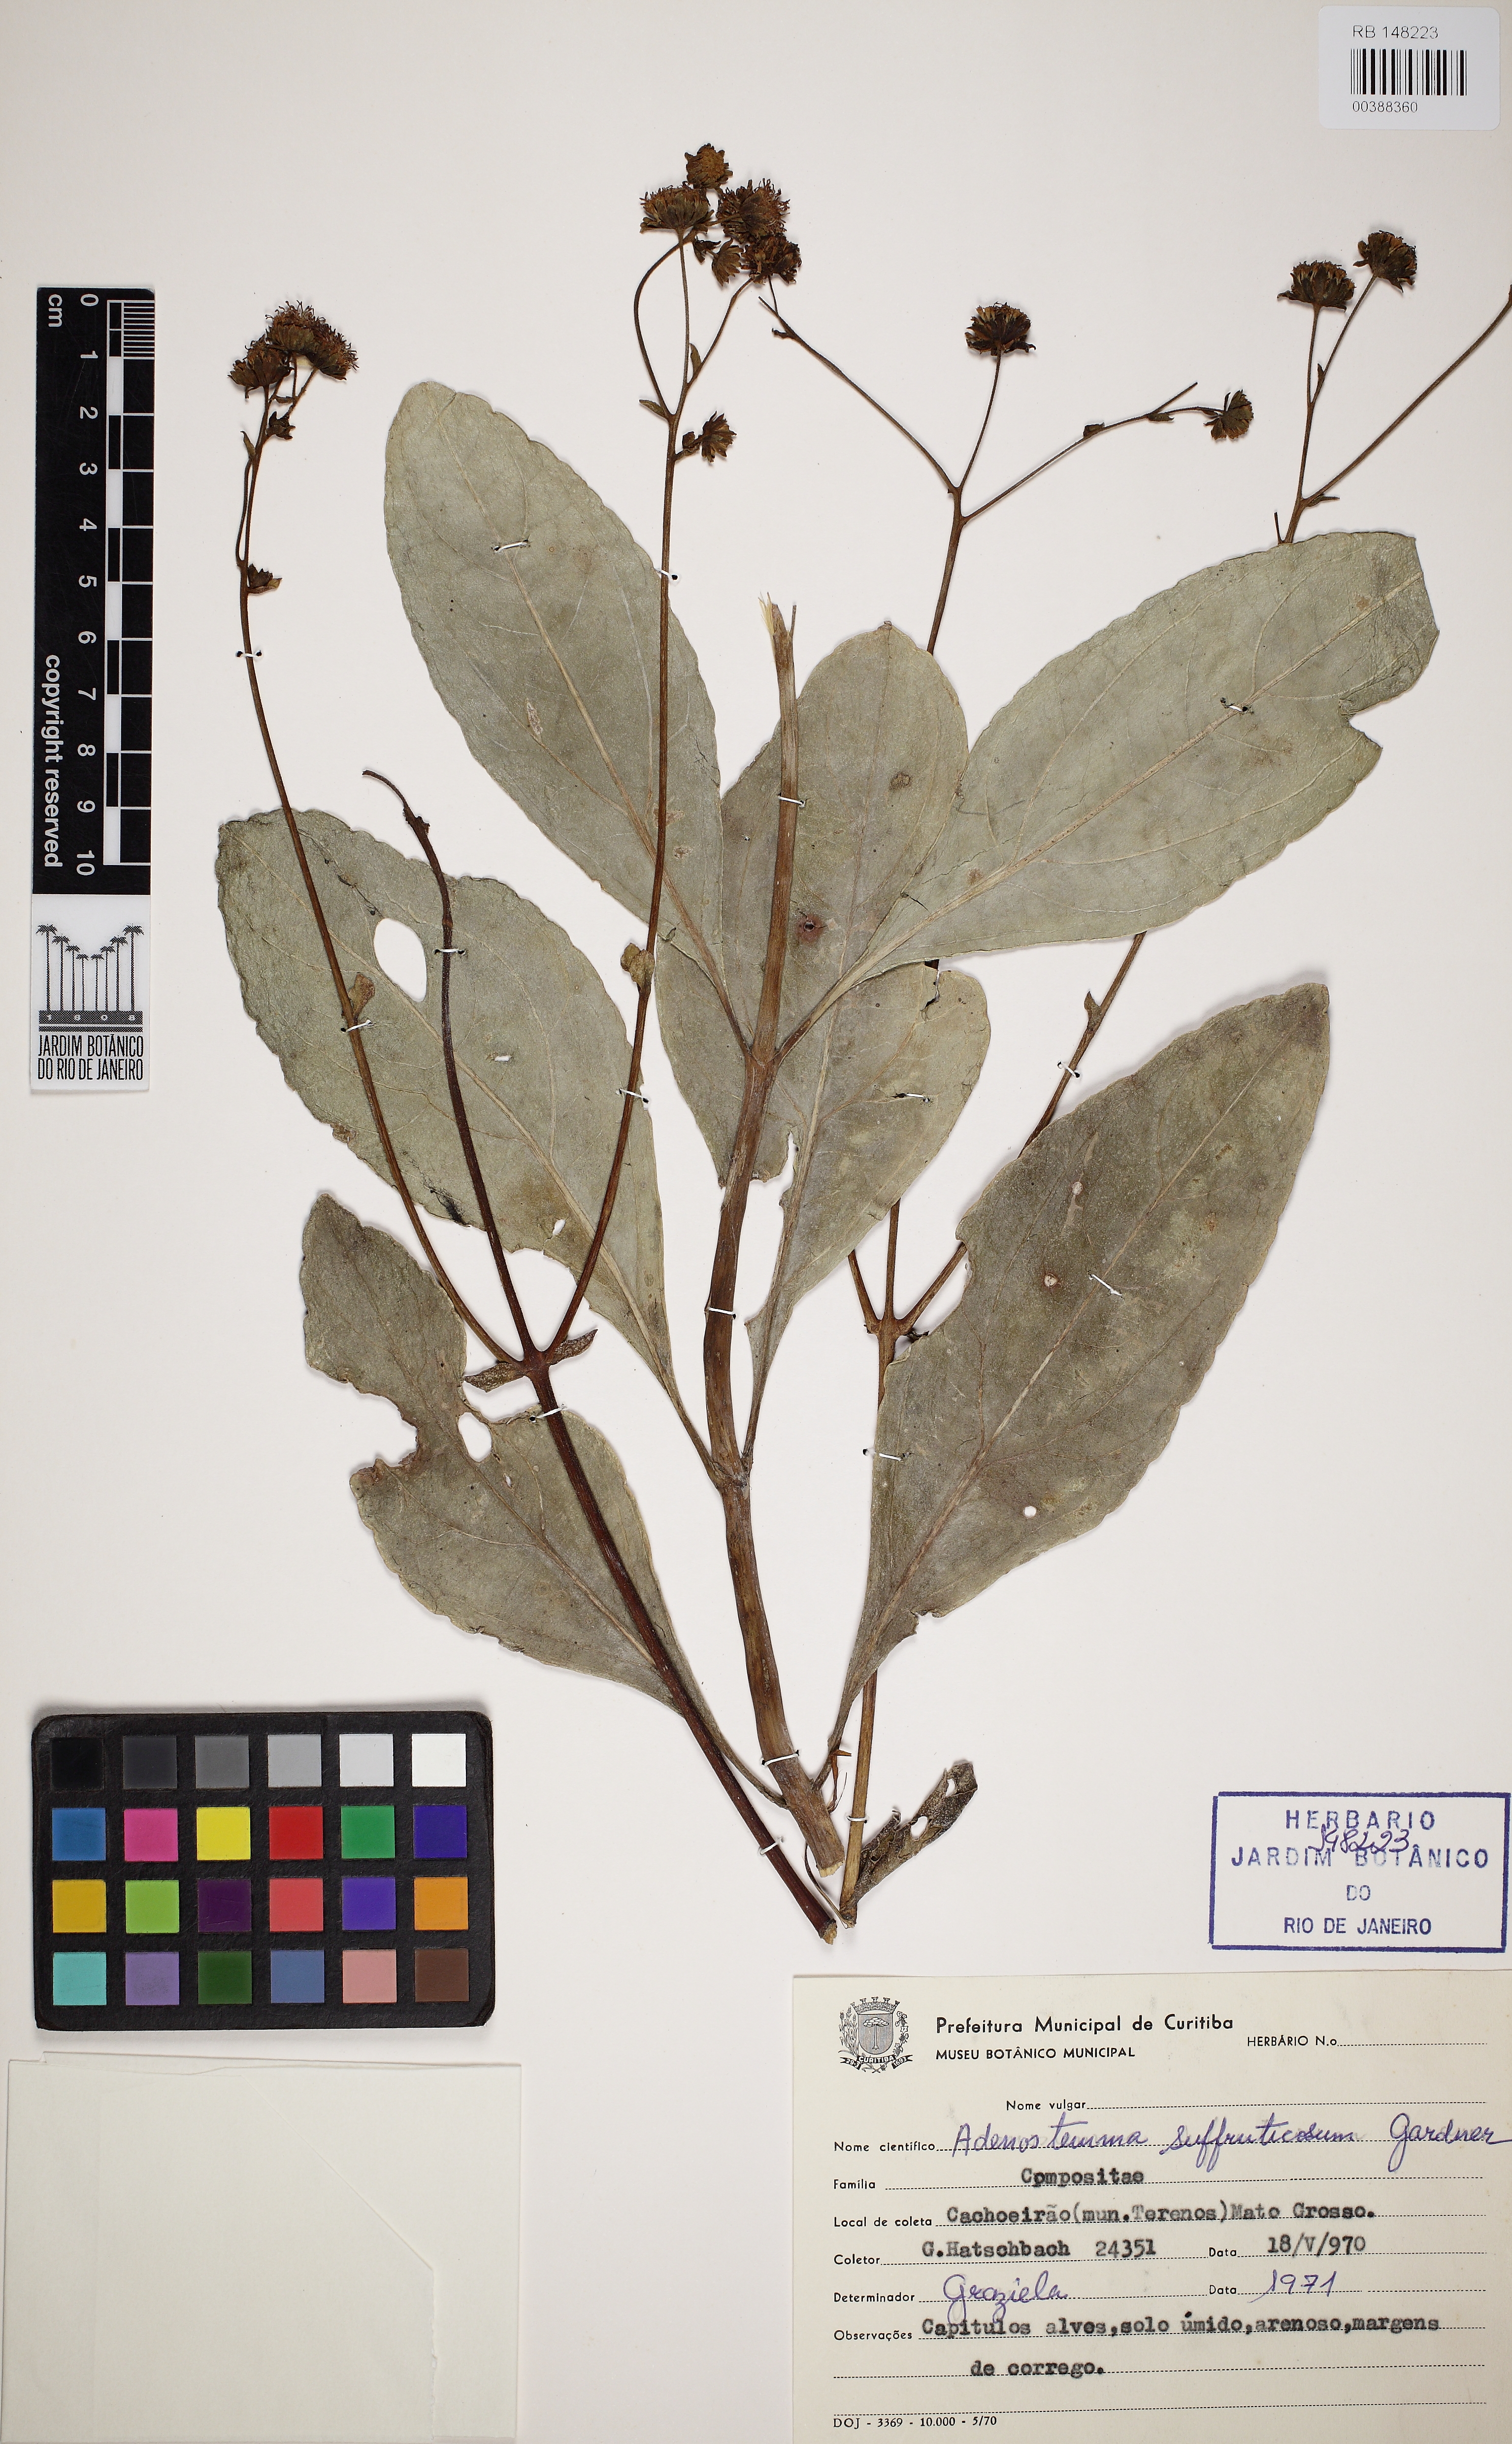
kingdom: Plantae
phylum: Tracheophyta
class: Magnoliopsida
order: Asterales
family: Asteraceae
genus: Adenostemma
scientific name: Adenostemma suffruticosum
